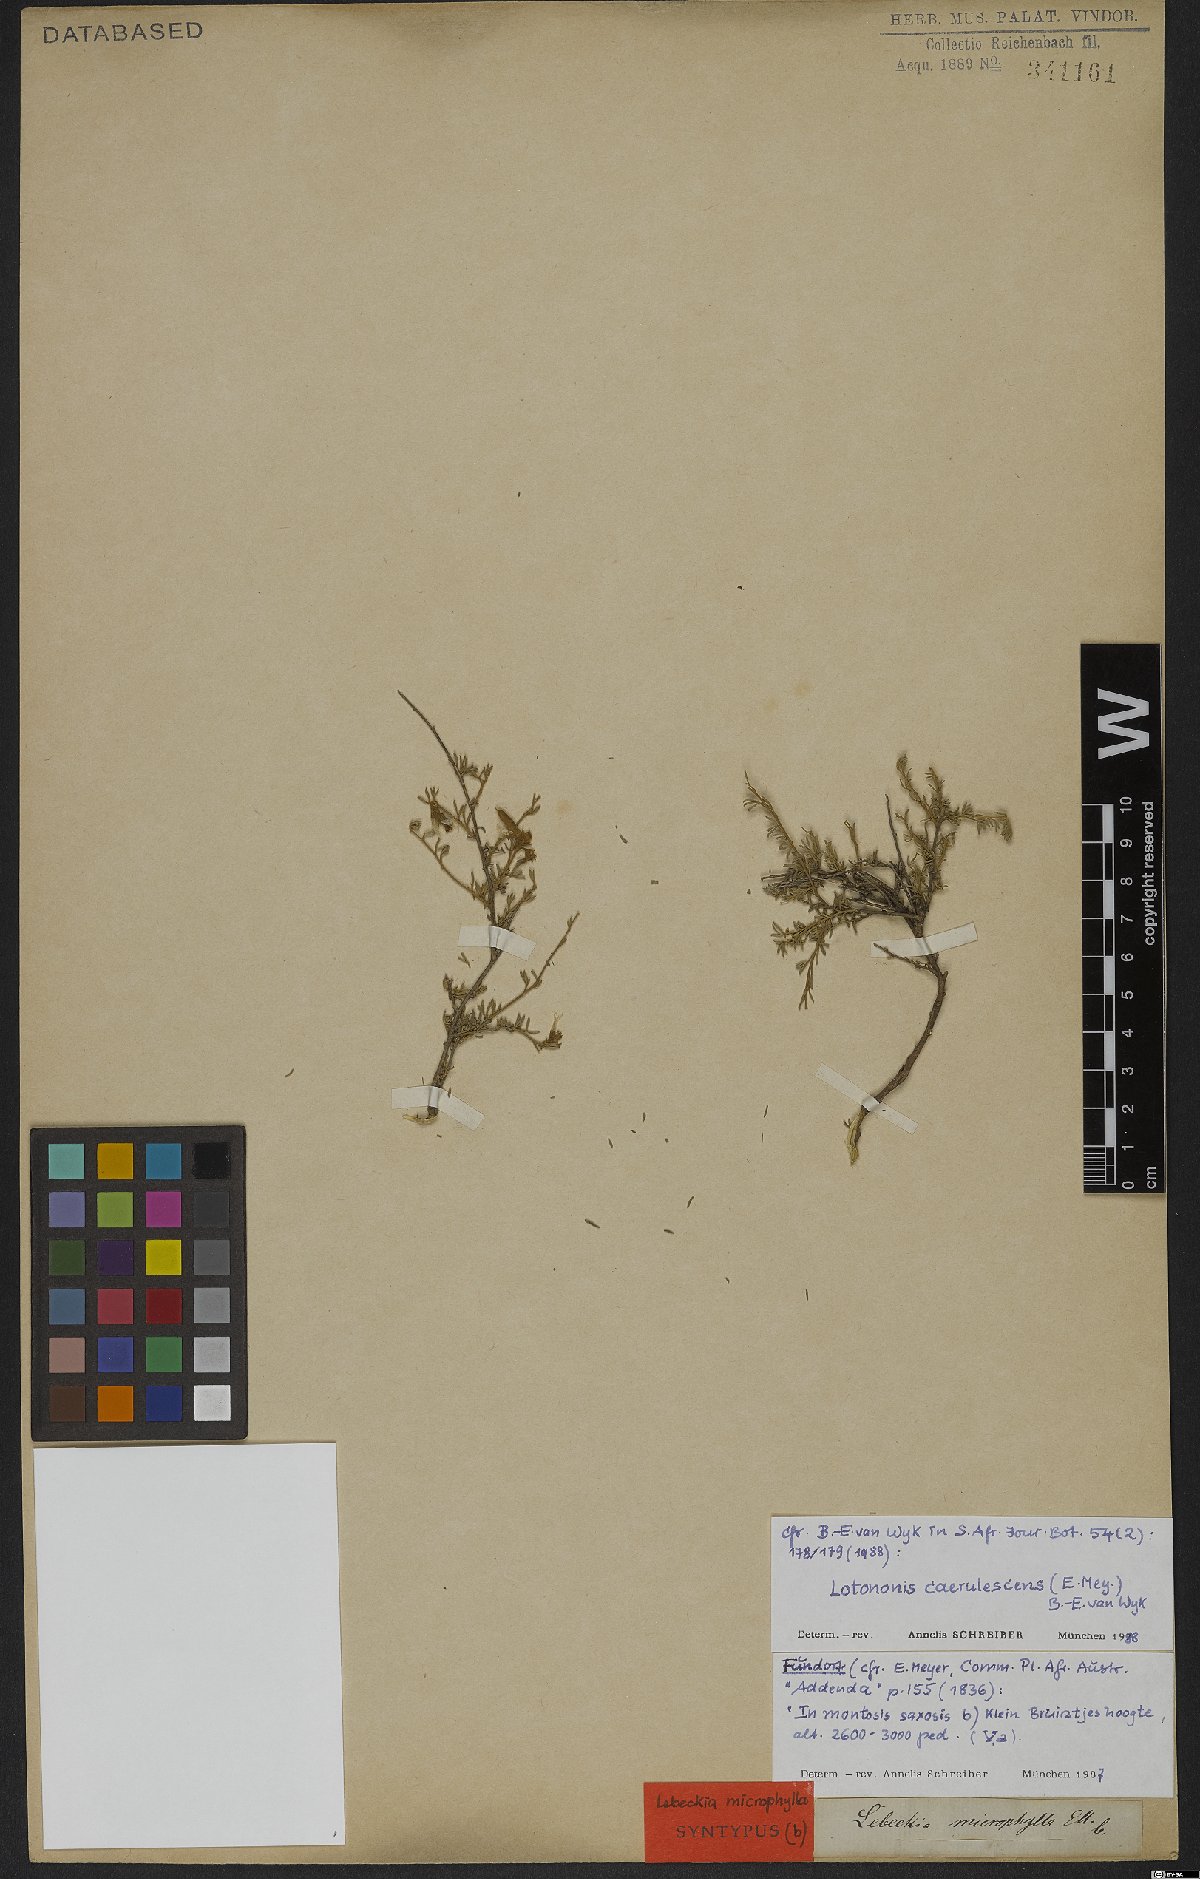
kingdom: Plantae
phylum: Tracheophyta
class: Magnoliopsida
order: Fabales
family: Fabaceae
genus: Lotononis
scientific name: Lotononis caerulescens
